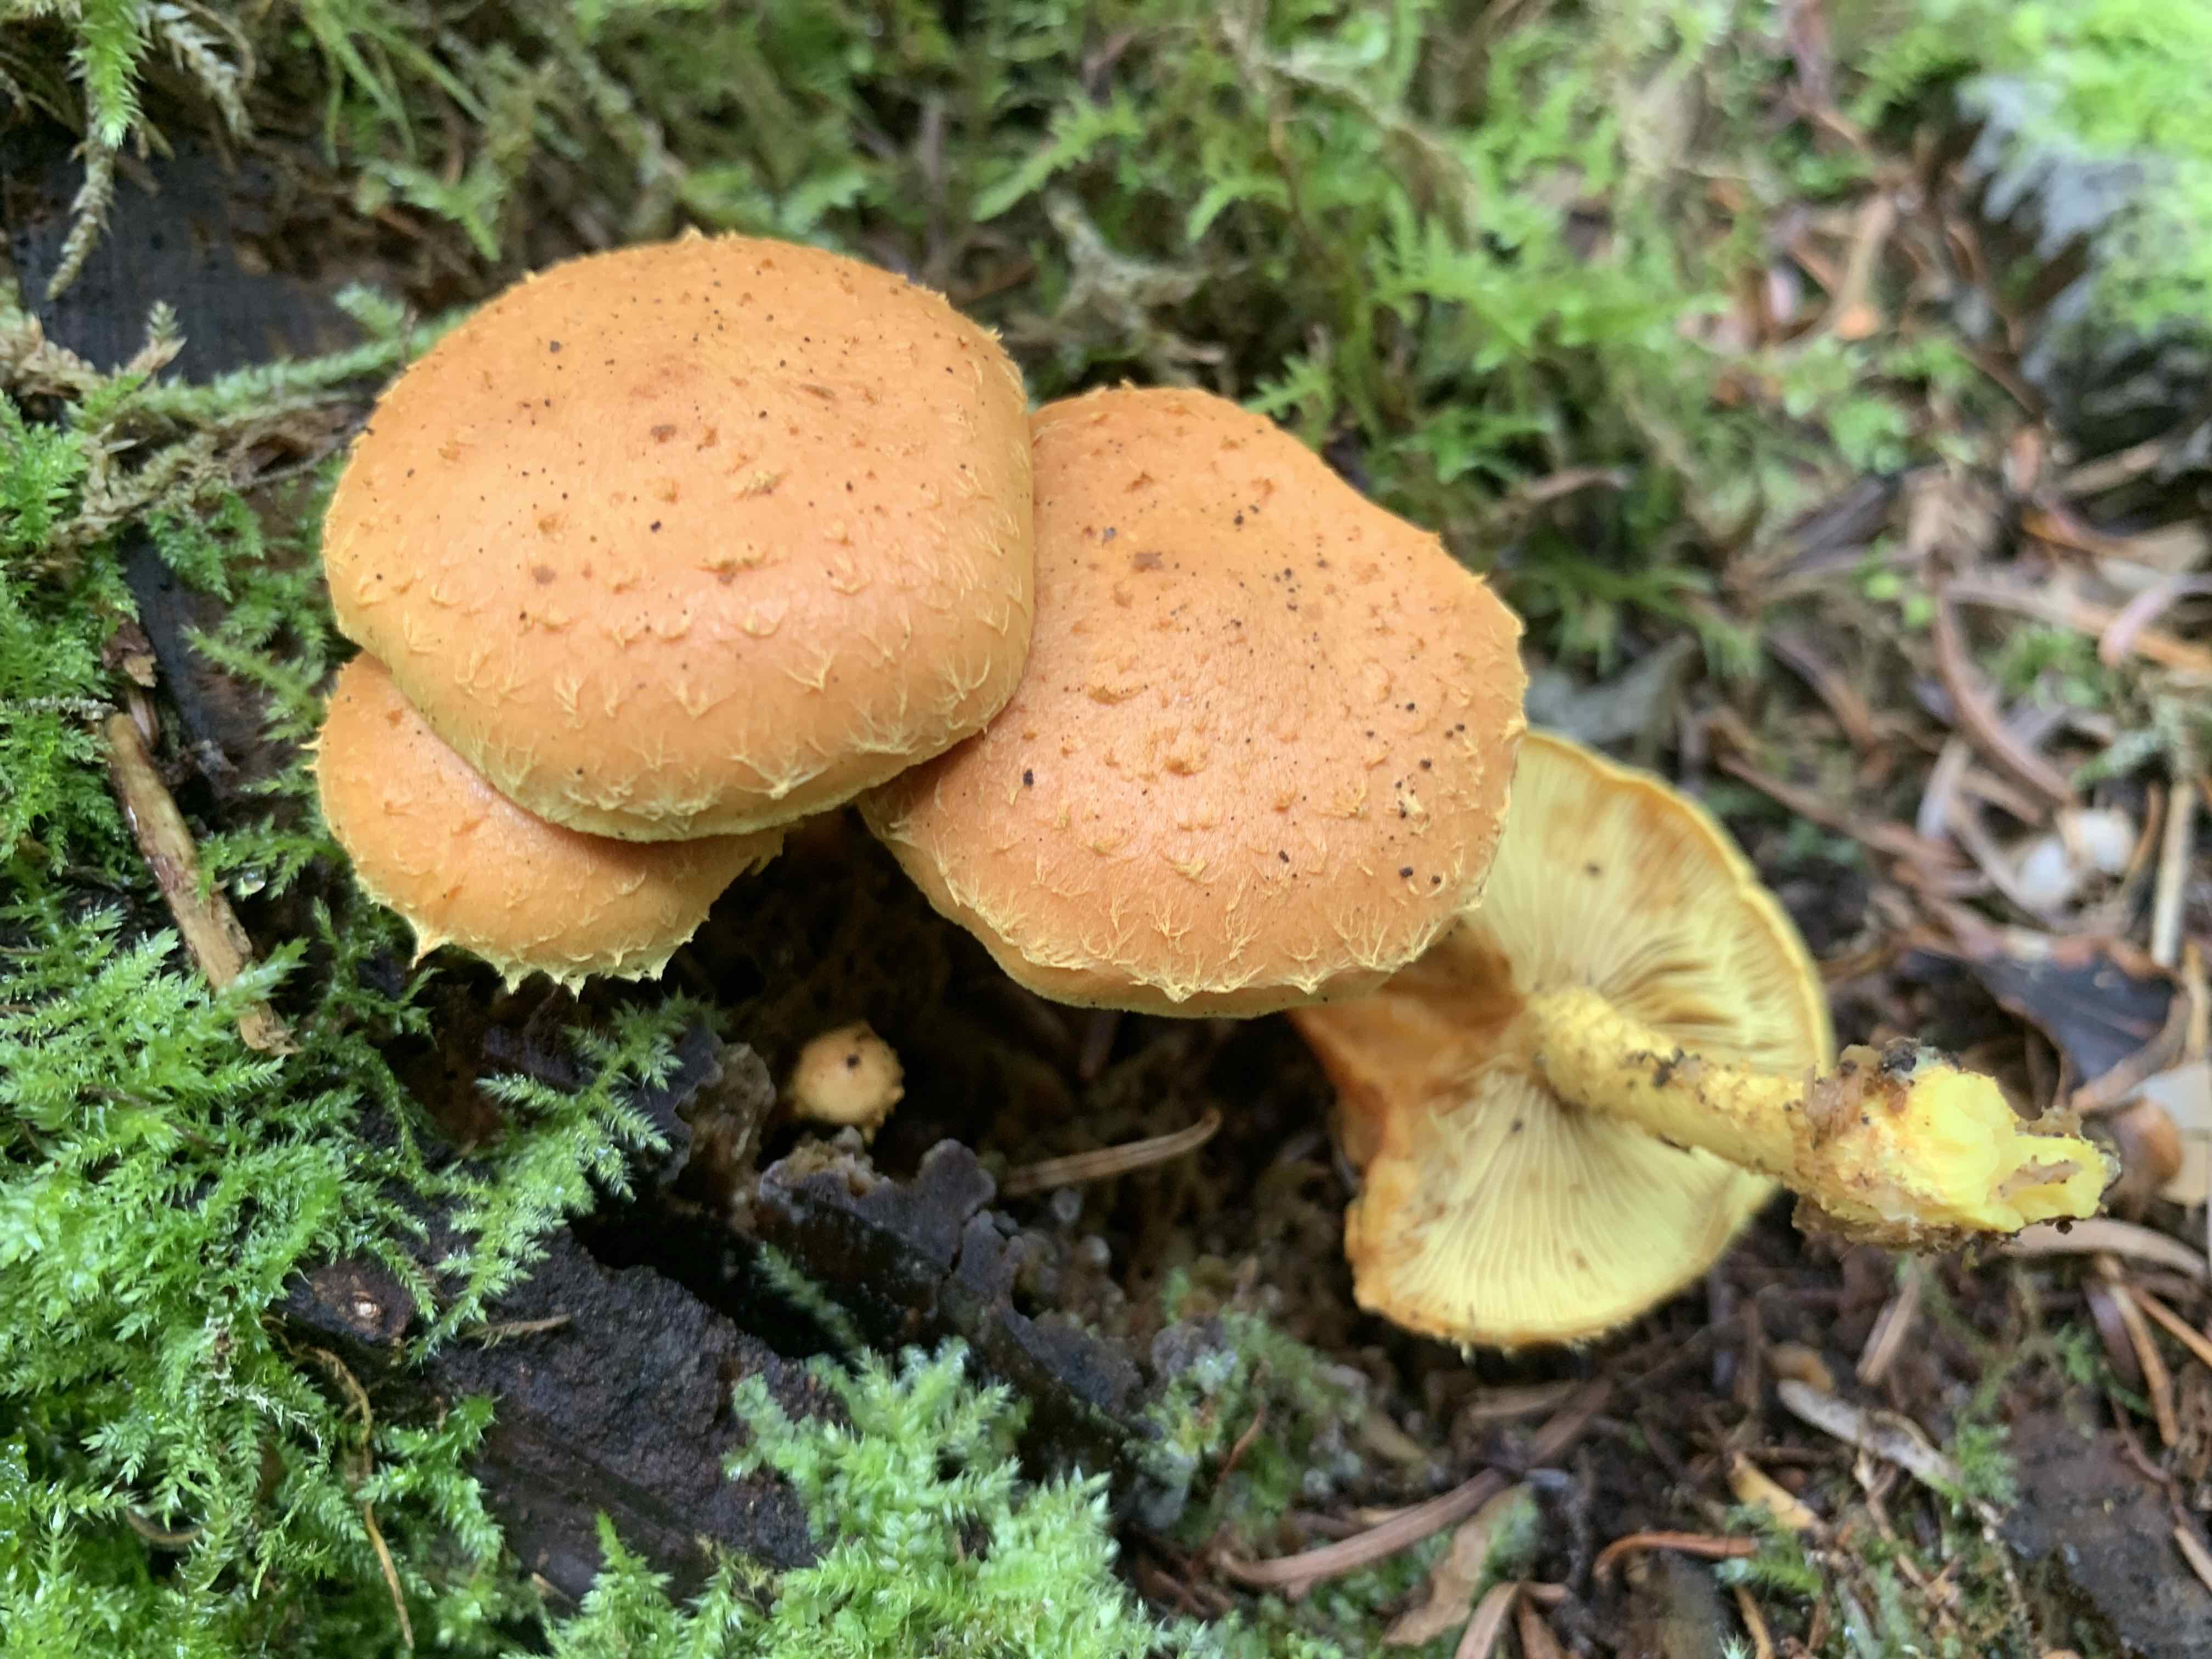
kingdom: Fungi
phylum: Basidiomycota
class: Agaricomycetes
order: Agaricales
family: Strophariaceae
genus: Pholiota
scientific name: Pholiota flammans
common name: flamme-skælhat
